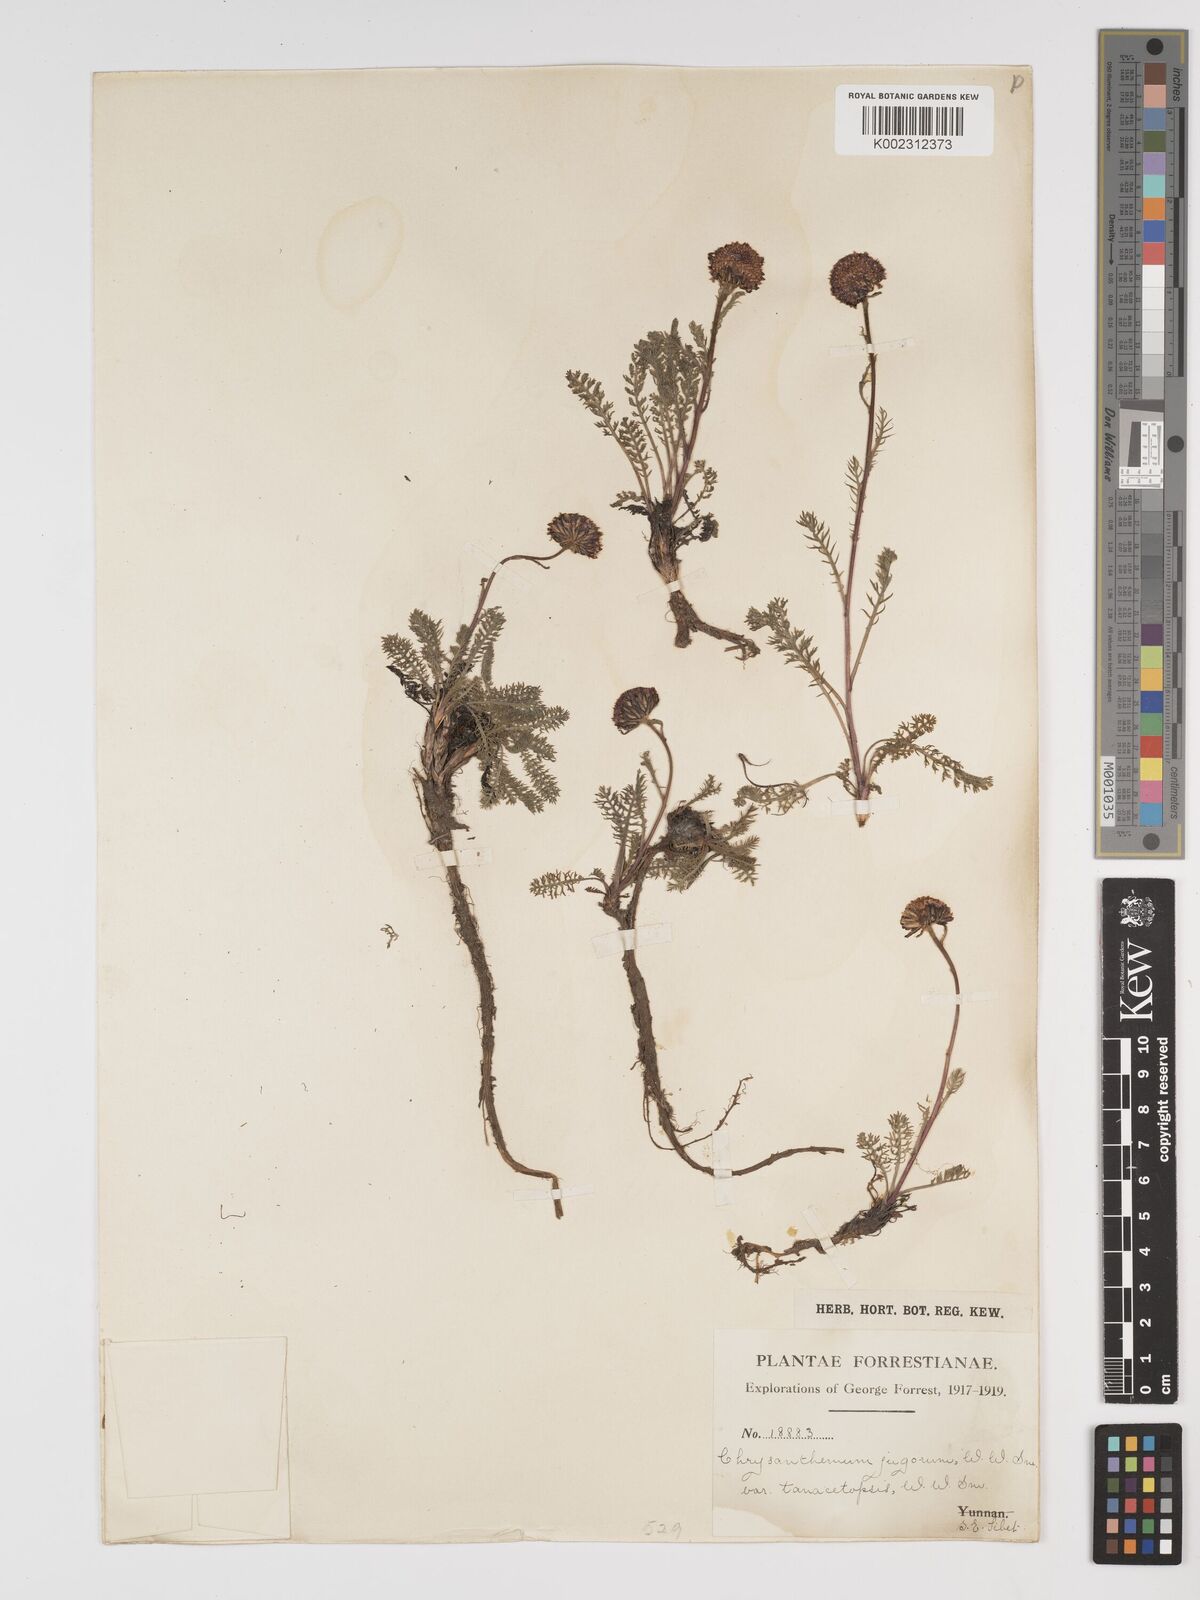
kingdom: Plantae
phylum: Tracheophyta
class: Magnoliopsida
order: Asterales
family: Asteraceae
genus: Tanacetum
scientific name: Tanacetum tatsienense
